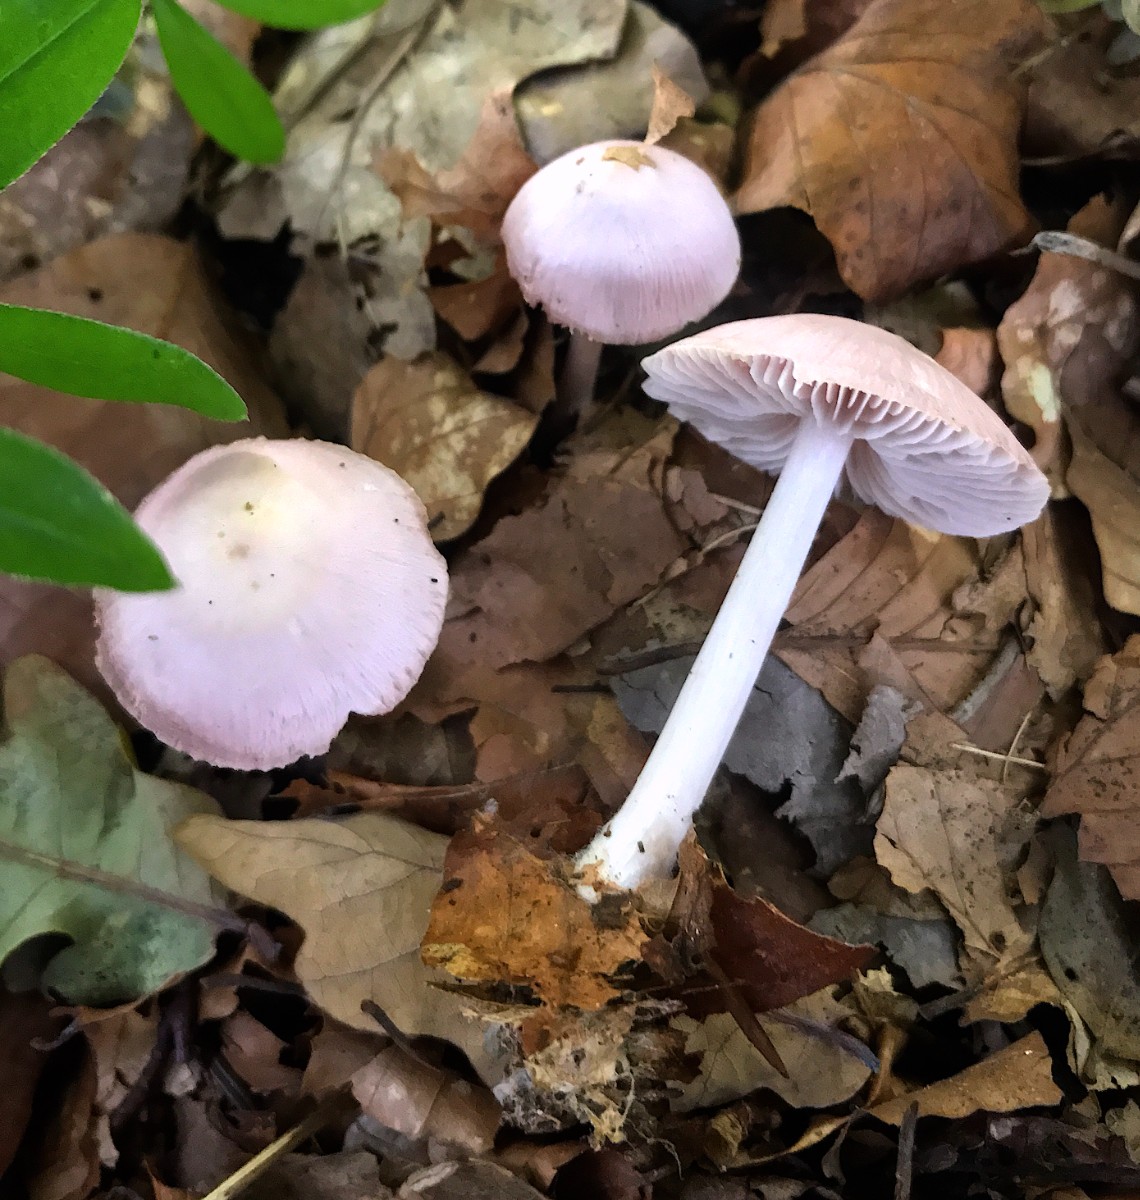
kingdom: Fungi
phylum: Basidiomycota
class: Agaricomycetes
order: Agaricales
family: Mycenaceae
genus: Mycena
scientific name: Mycena rosea
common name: rosa huesvamp
